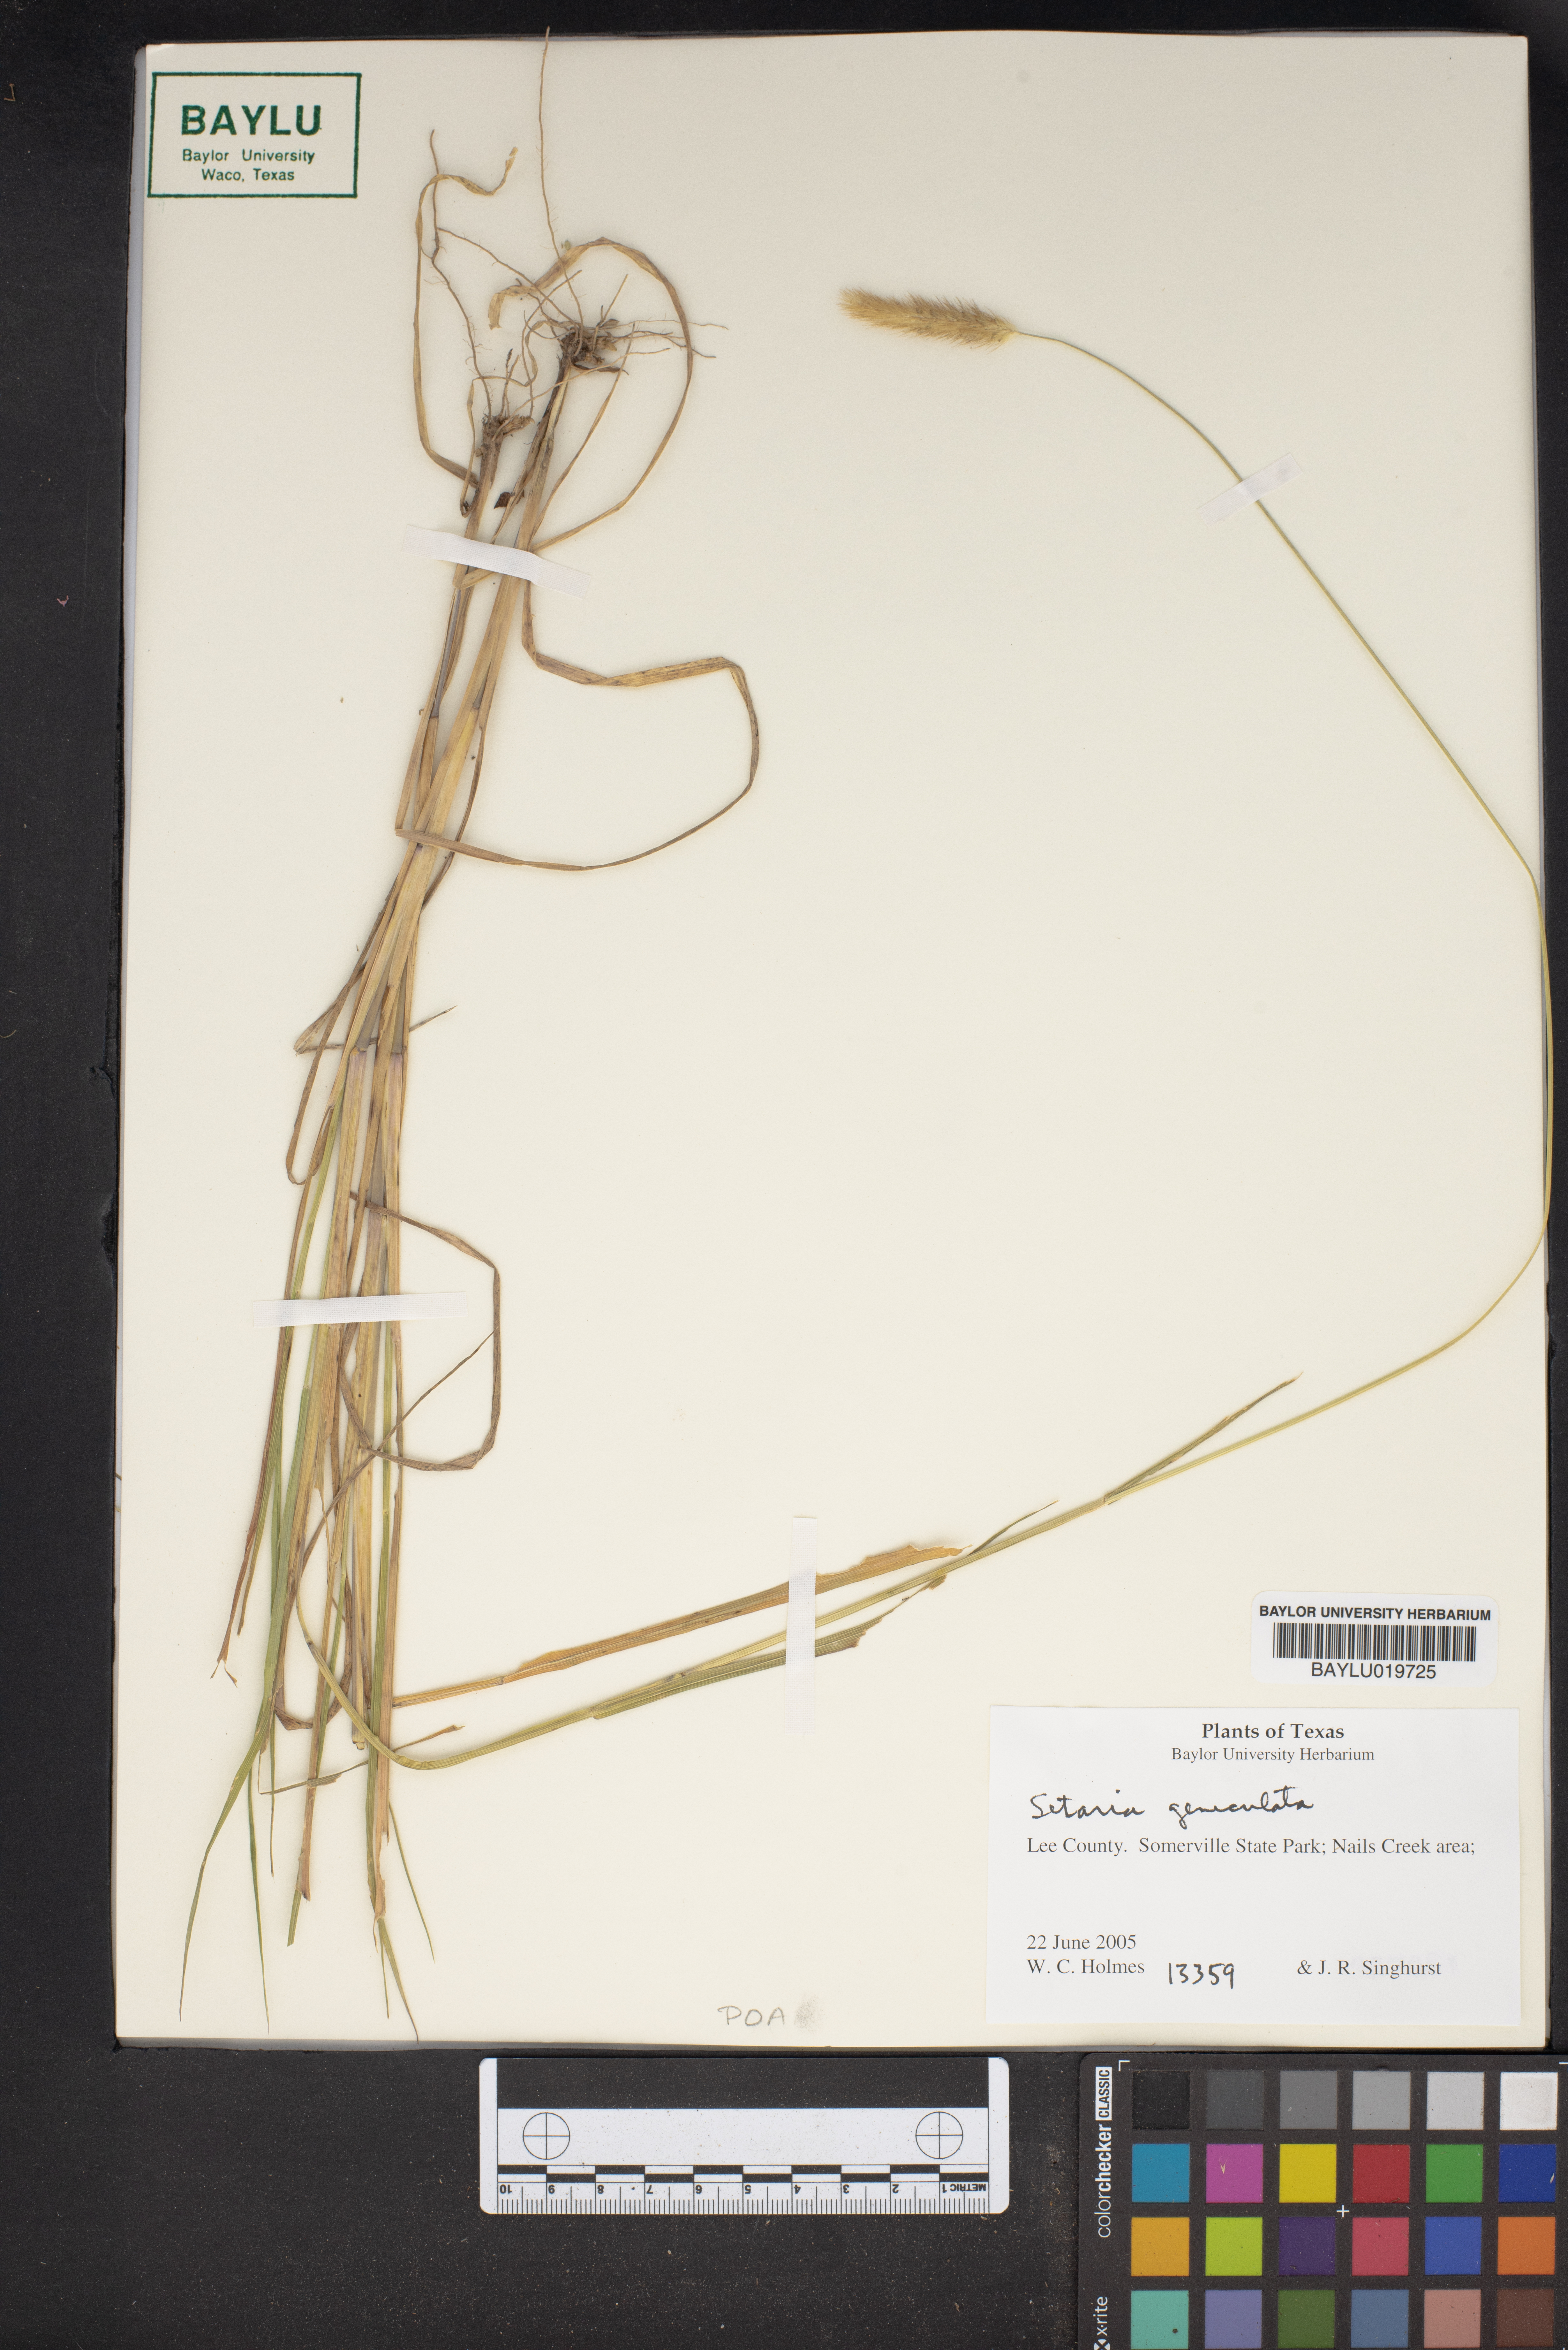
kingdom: Plantae
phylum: Tracheophyta
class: Liliopsida
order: Poales
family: Poaceae
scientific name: Poaceae
